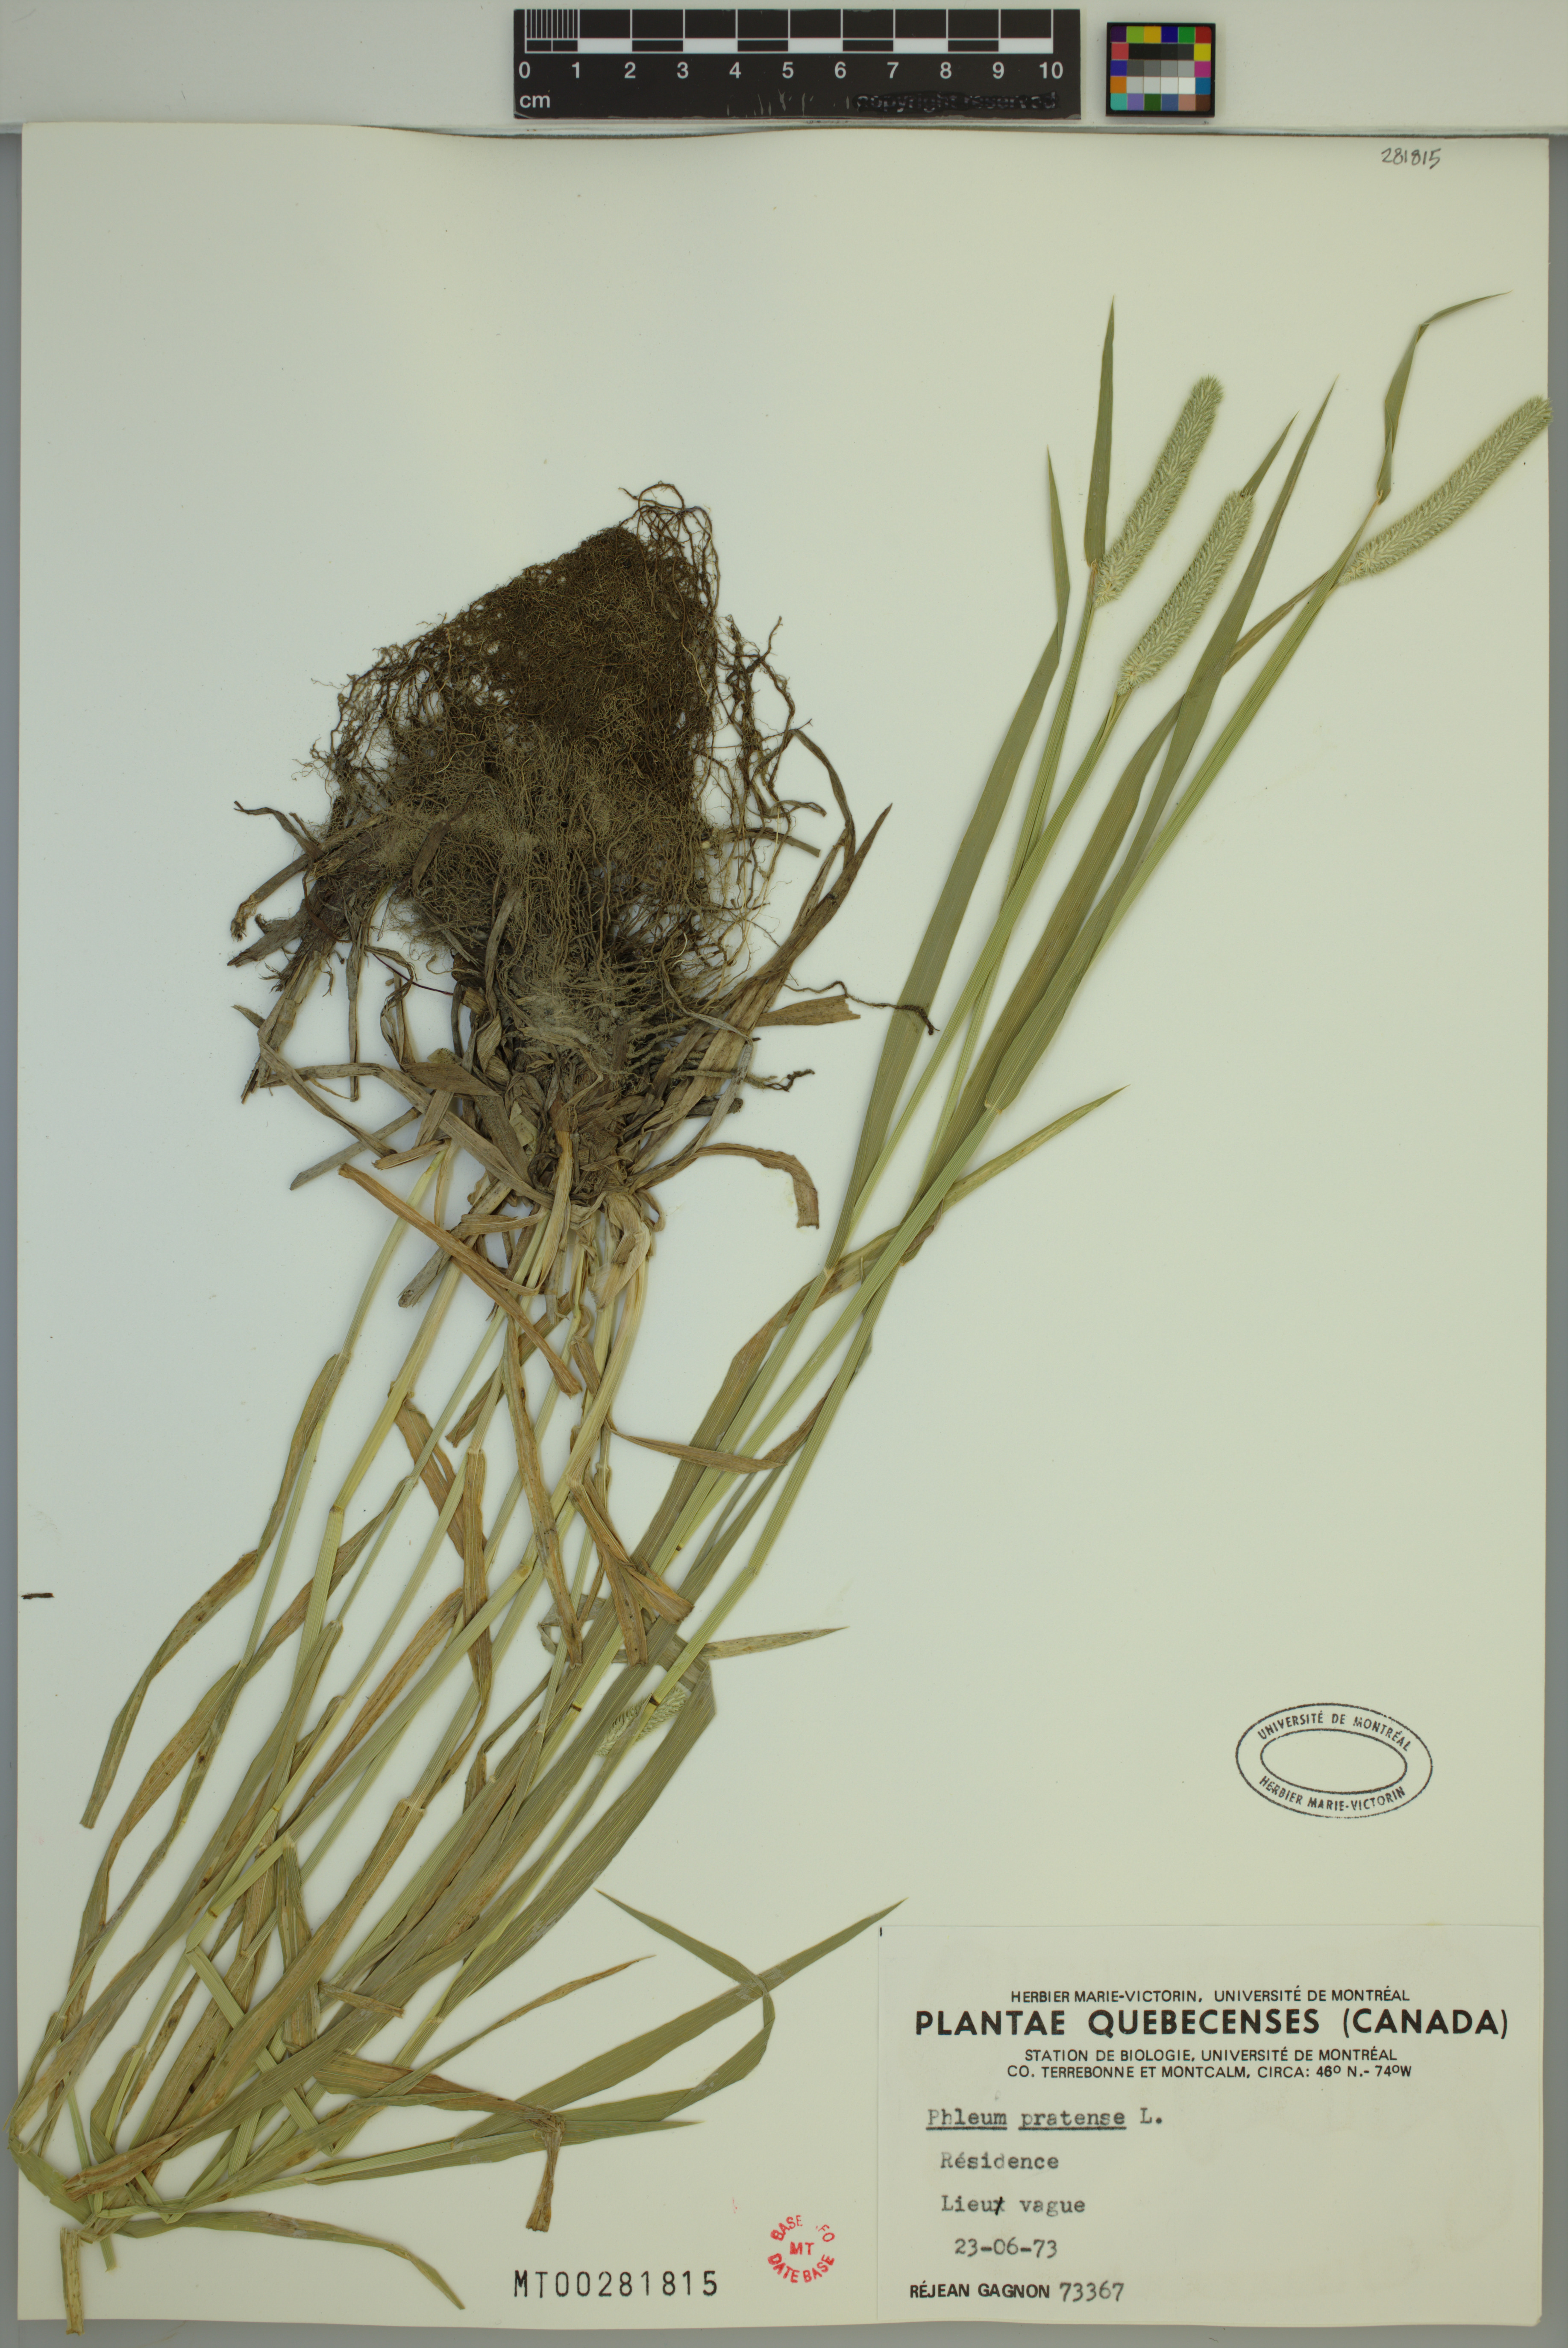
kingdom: Plantae
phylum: Tracheophyta
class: Liliopsida
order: Poales
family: Poaceae
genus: Phleum
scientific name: Phleum pratense
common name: Timothy grass
